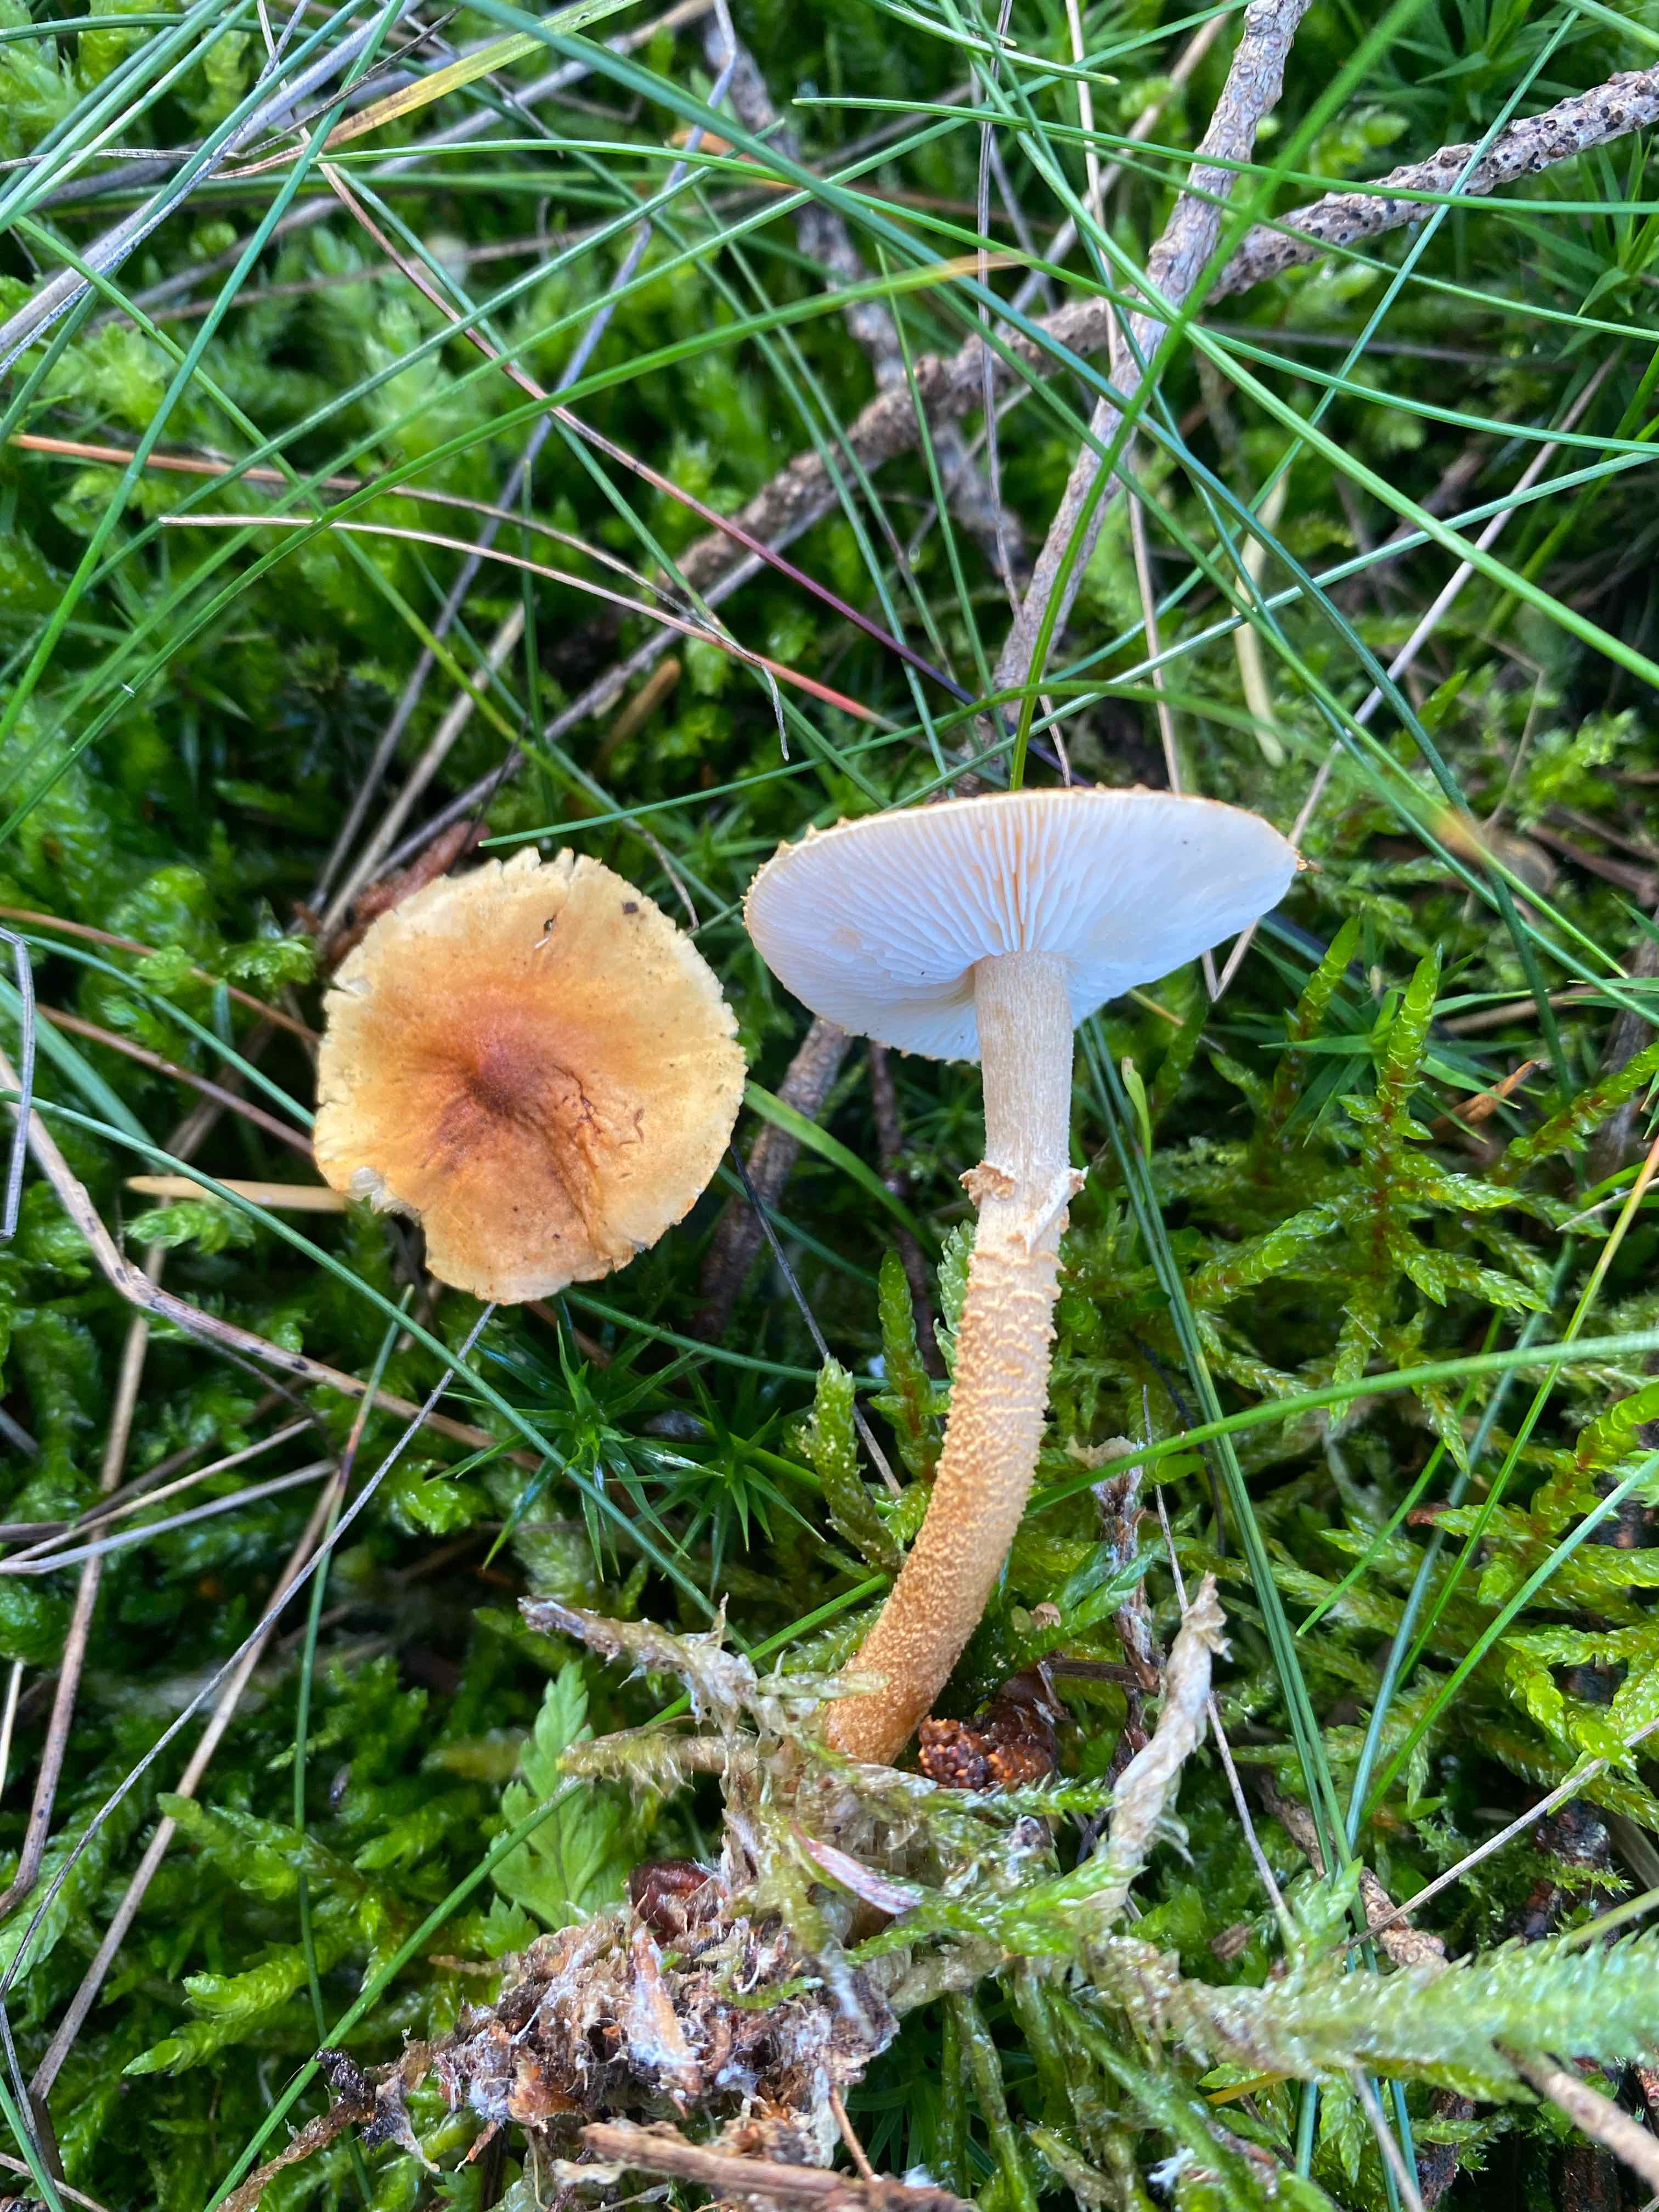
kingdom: Fungi
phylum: Basidiomycota
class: Agaricomycetes
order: Agaricales
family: Tricholomataceae
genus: Cystoderma
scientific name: Cystoderma amianthinum
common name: okkergul grynhat
